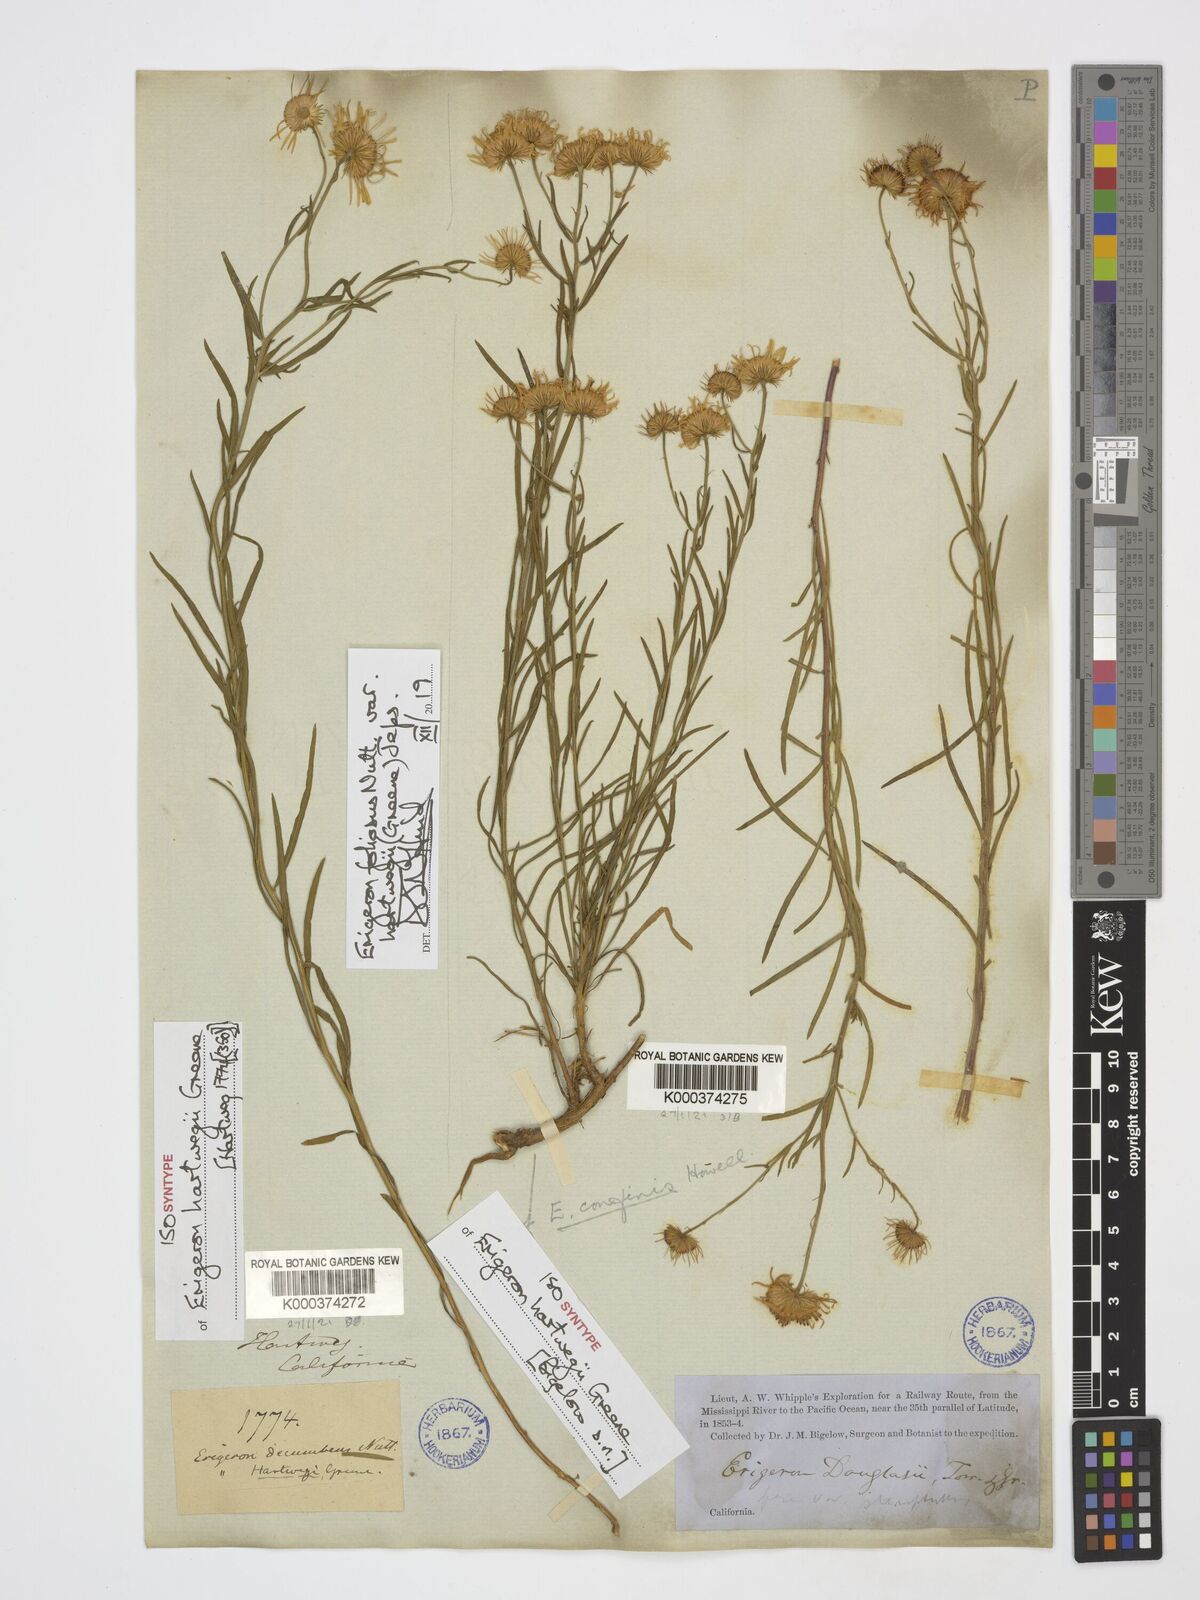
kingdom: Plantae
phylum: Tracheophyta
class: Magnoliopsida
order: Asterales
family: Asteraceae
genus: Erigeron
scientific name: Erigeron foliosus
